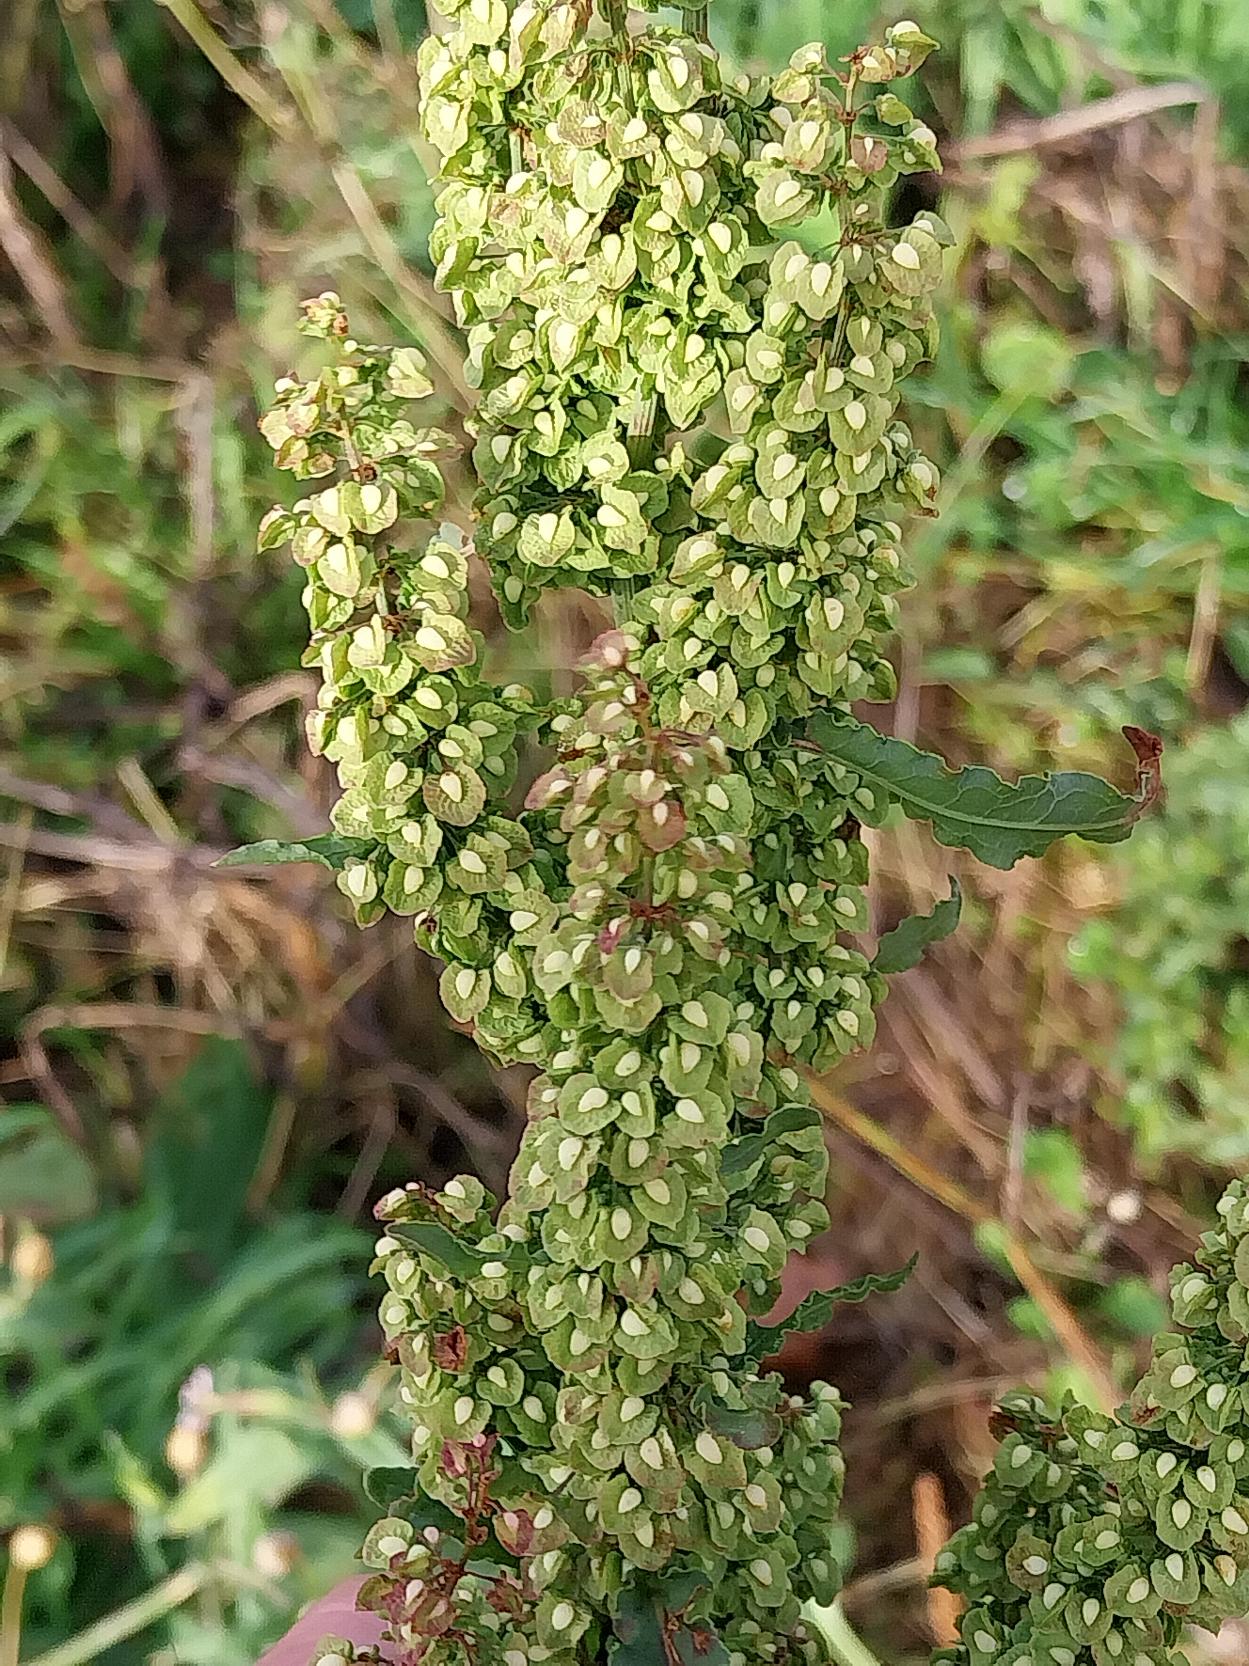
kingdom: Plantae
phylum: Tracheophyta
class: Magnoliopsida
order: Caryophyllales
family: Polygonaceae
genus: Rumex
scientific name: Rumex crispus
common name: Kruset skræppe
